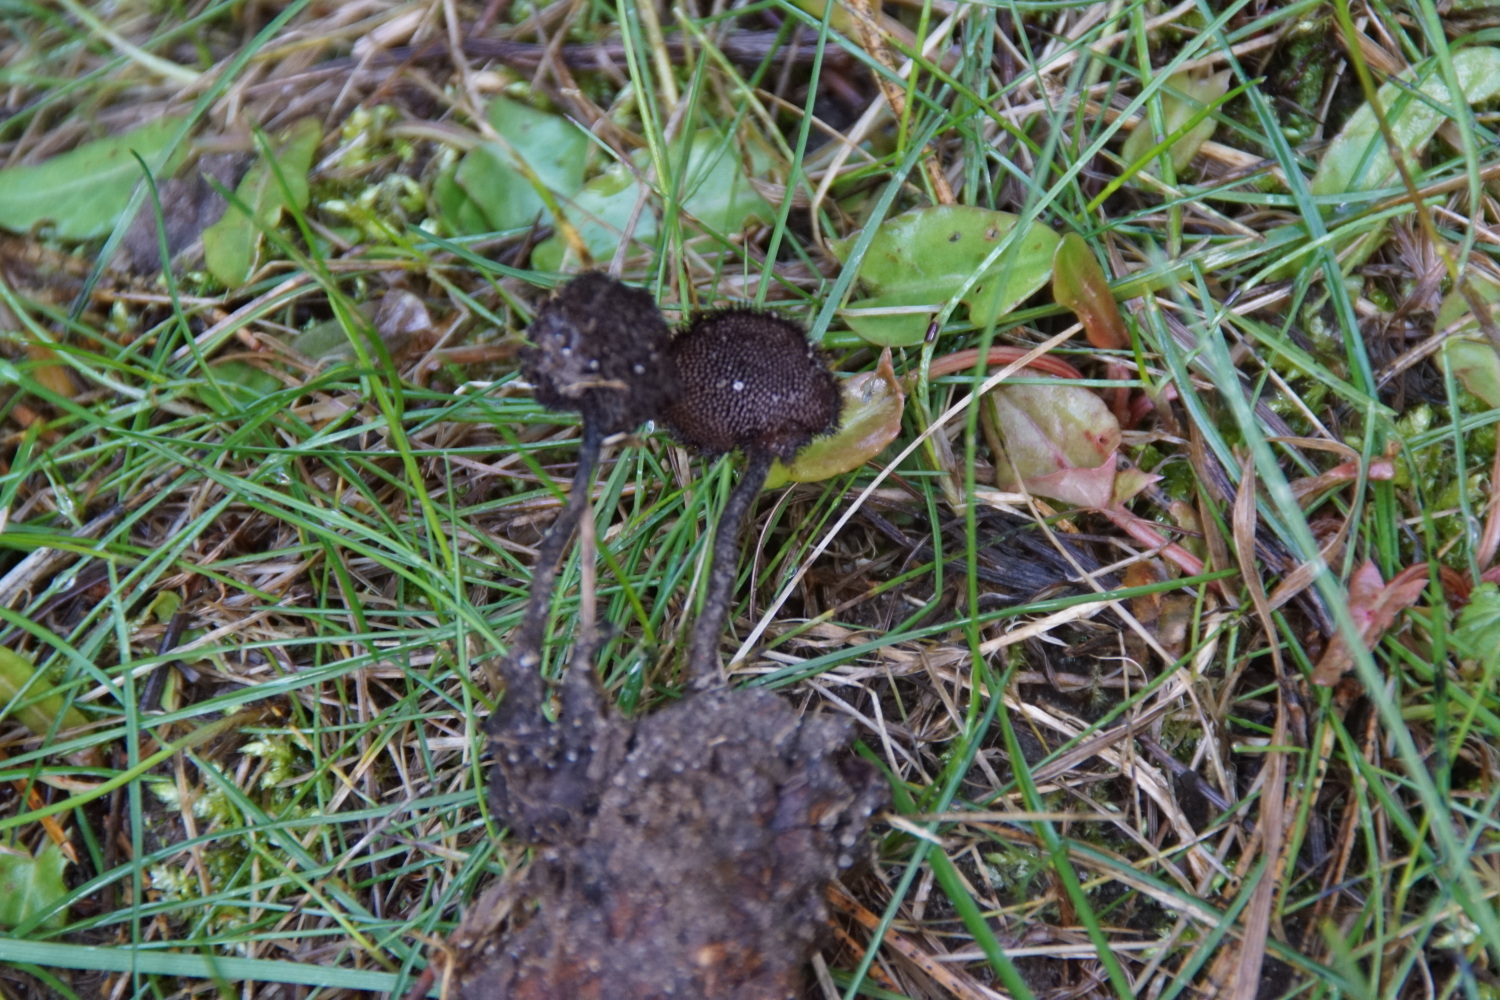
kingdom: Fungi
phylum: Basidiomycota
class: Agaricomycetes
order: Russulales
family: Auriscalpiaceae
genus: Auriscalpium
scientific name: Auriscalpium vulgare
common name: koglepigsvamp
